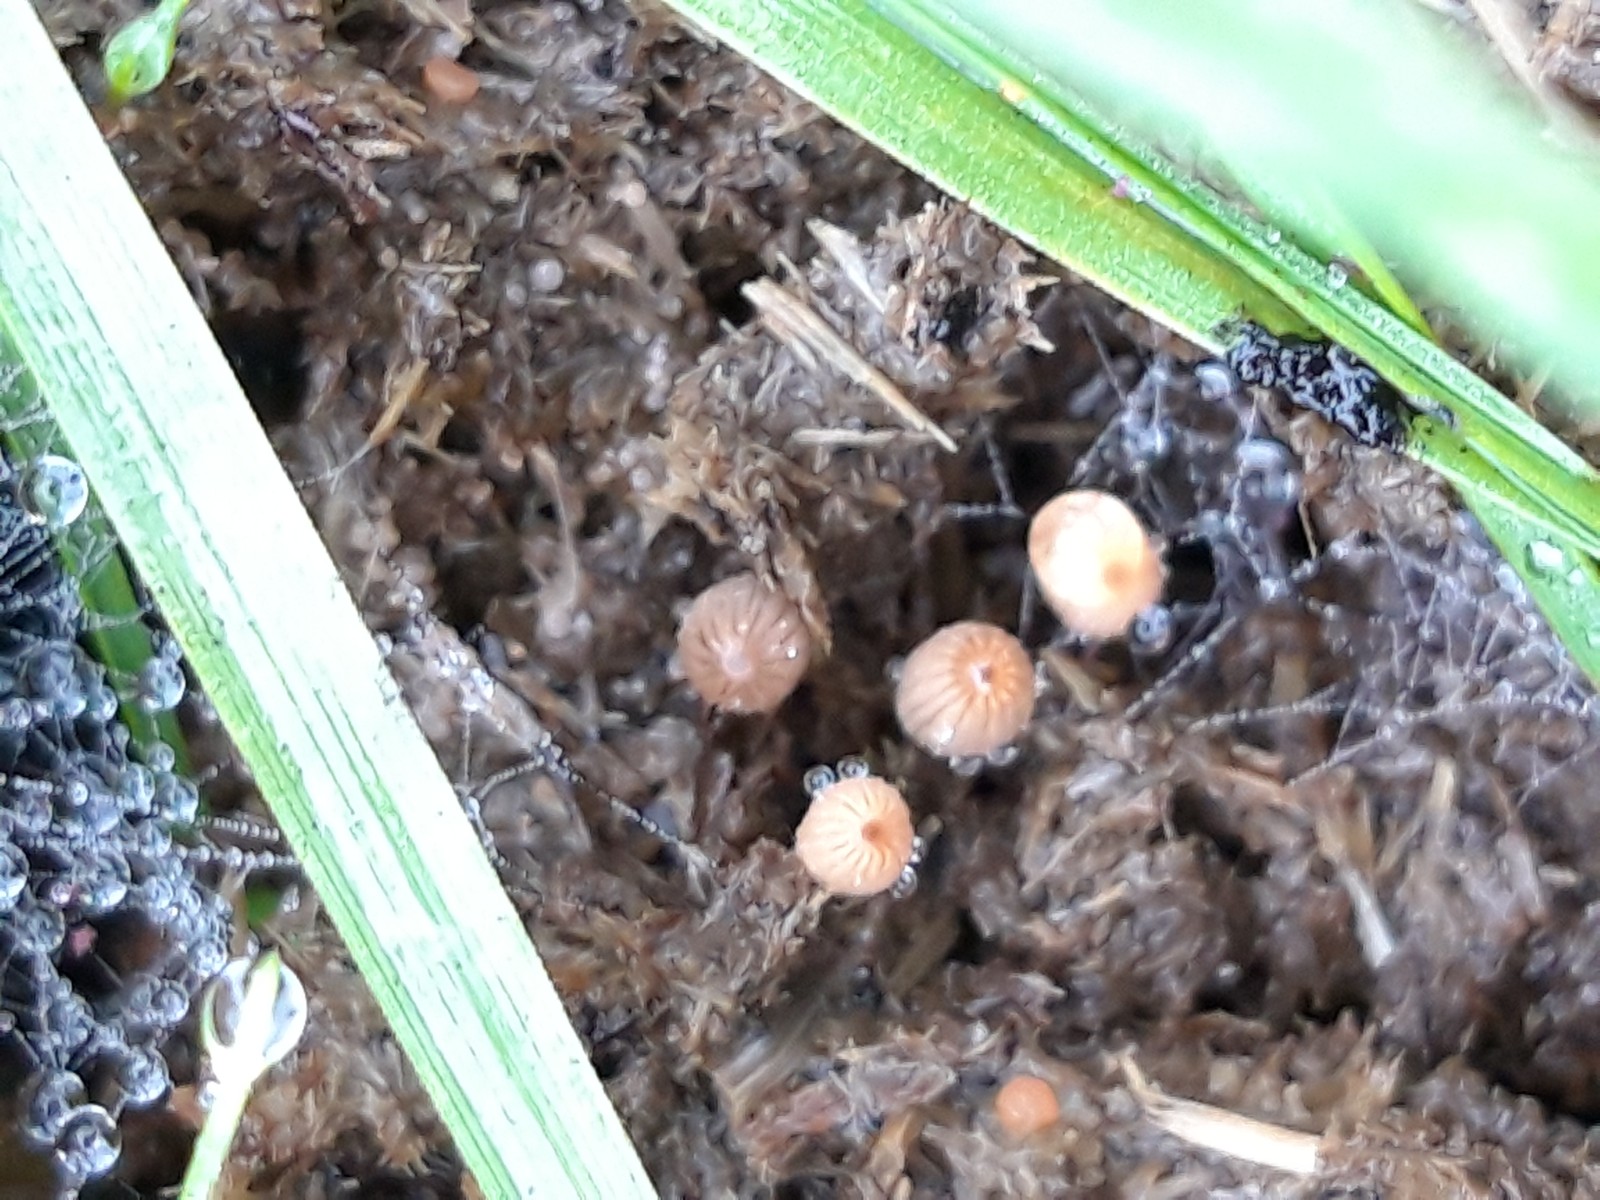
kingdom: Fungi
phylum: Basidiomycota
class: Agaricomycetes
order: Agaricales
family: Psathyrellaceae
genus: Parasola
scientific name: Parasola misera
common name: lillebitte hjulhat
